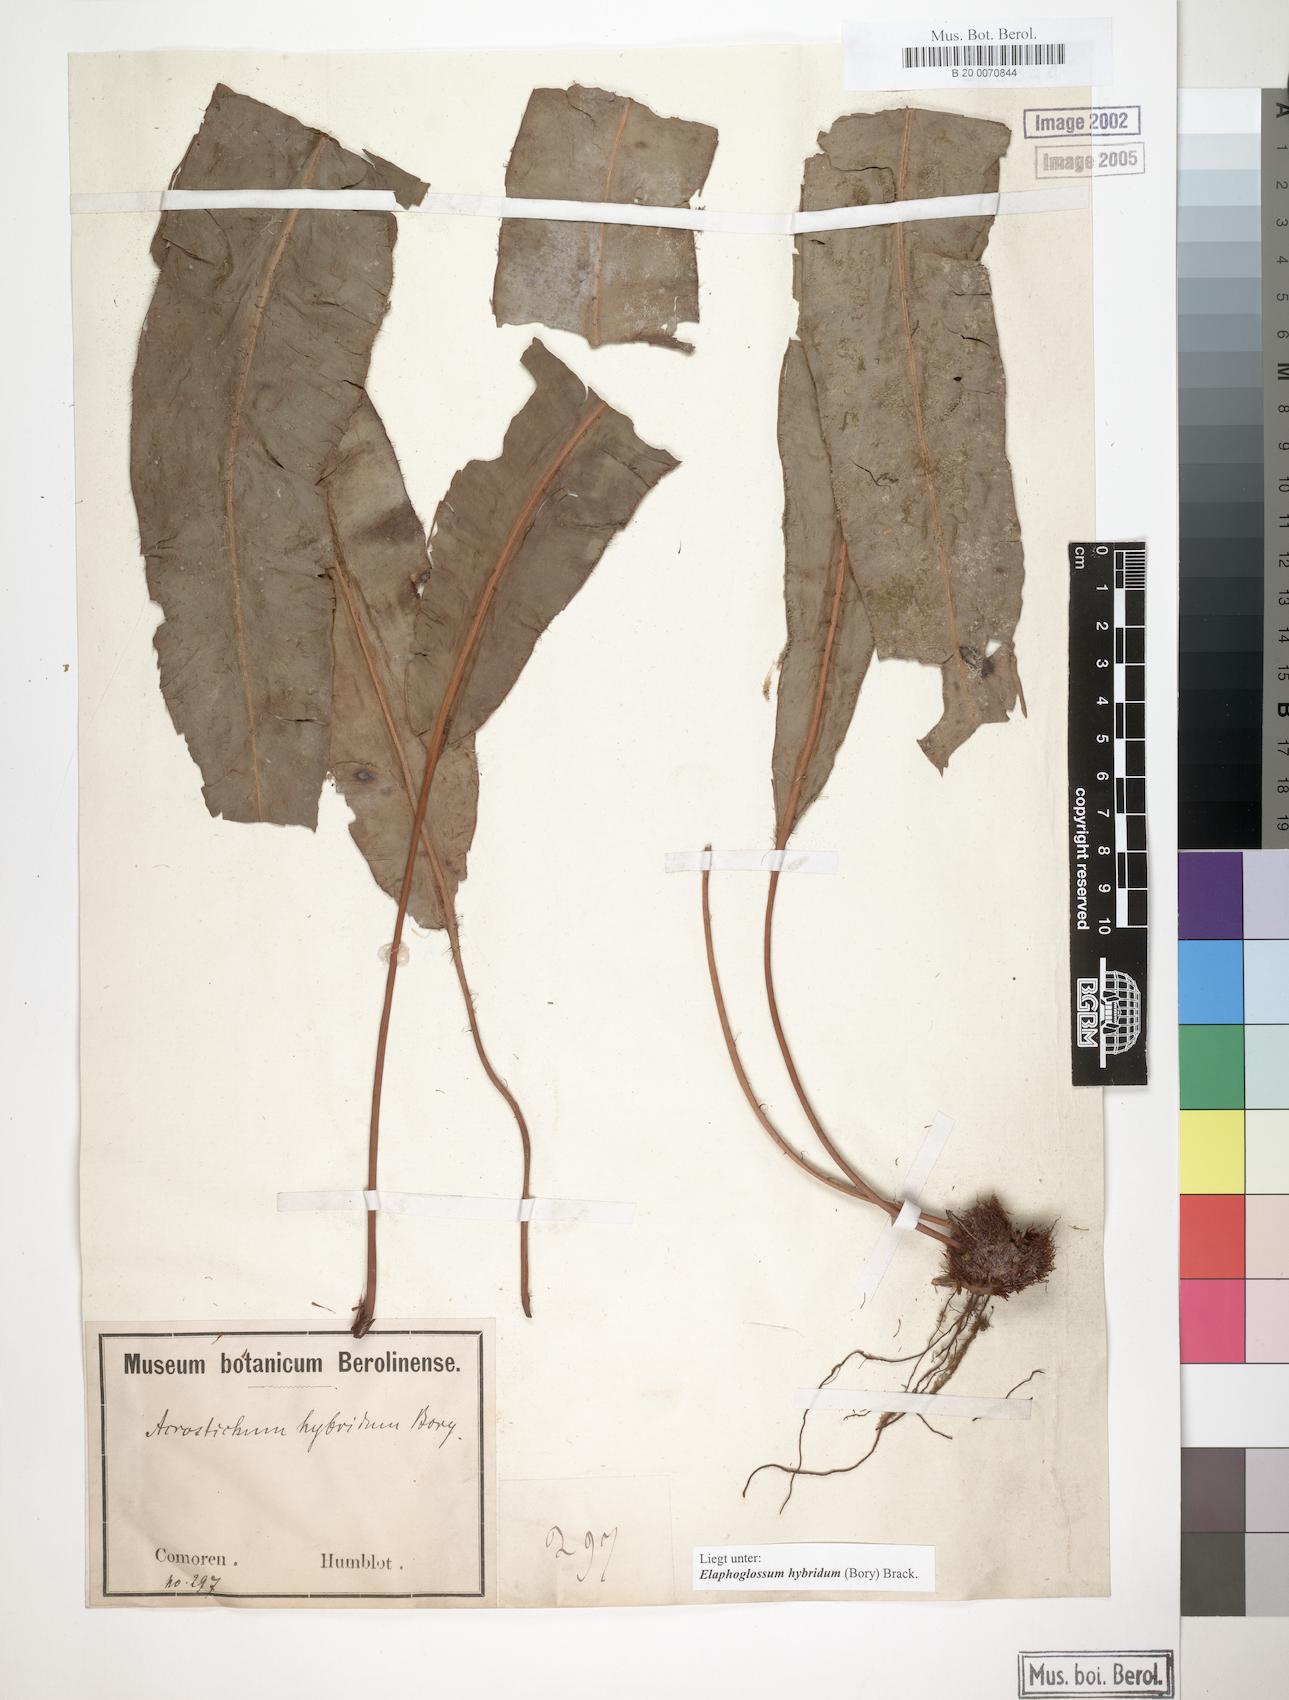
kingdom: Plantae
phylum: Tracheophyta
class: Polypodiopsida
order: Polypodiales
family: Dryopteridaceae
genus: Elaphoglossum
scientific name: Elaphoglossum hybridum
